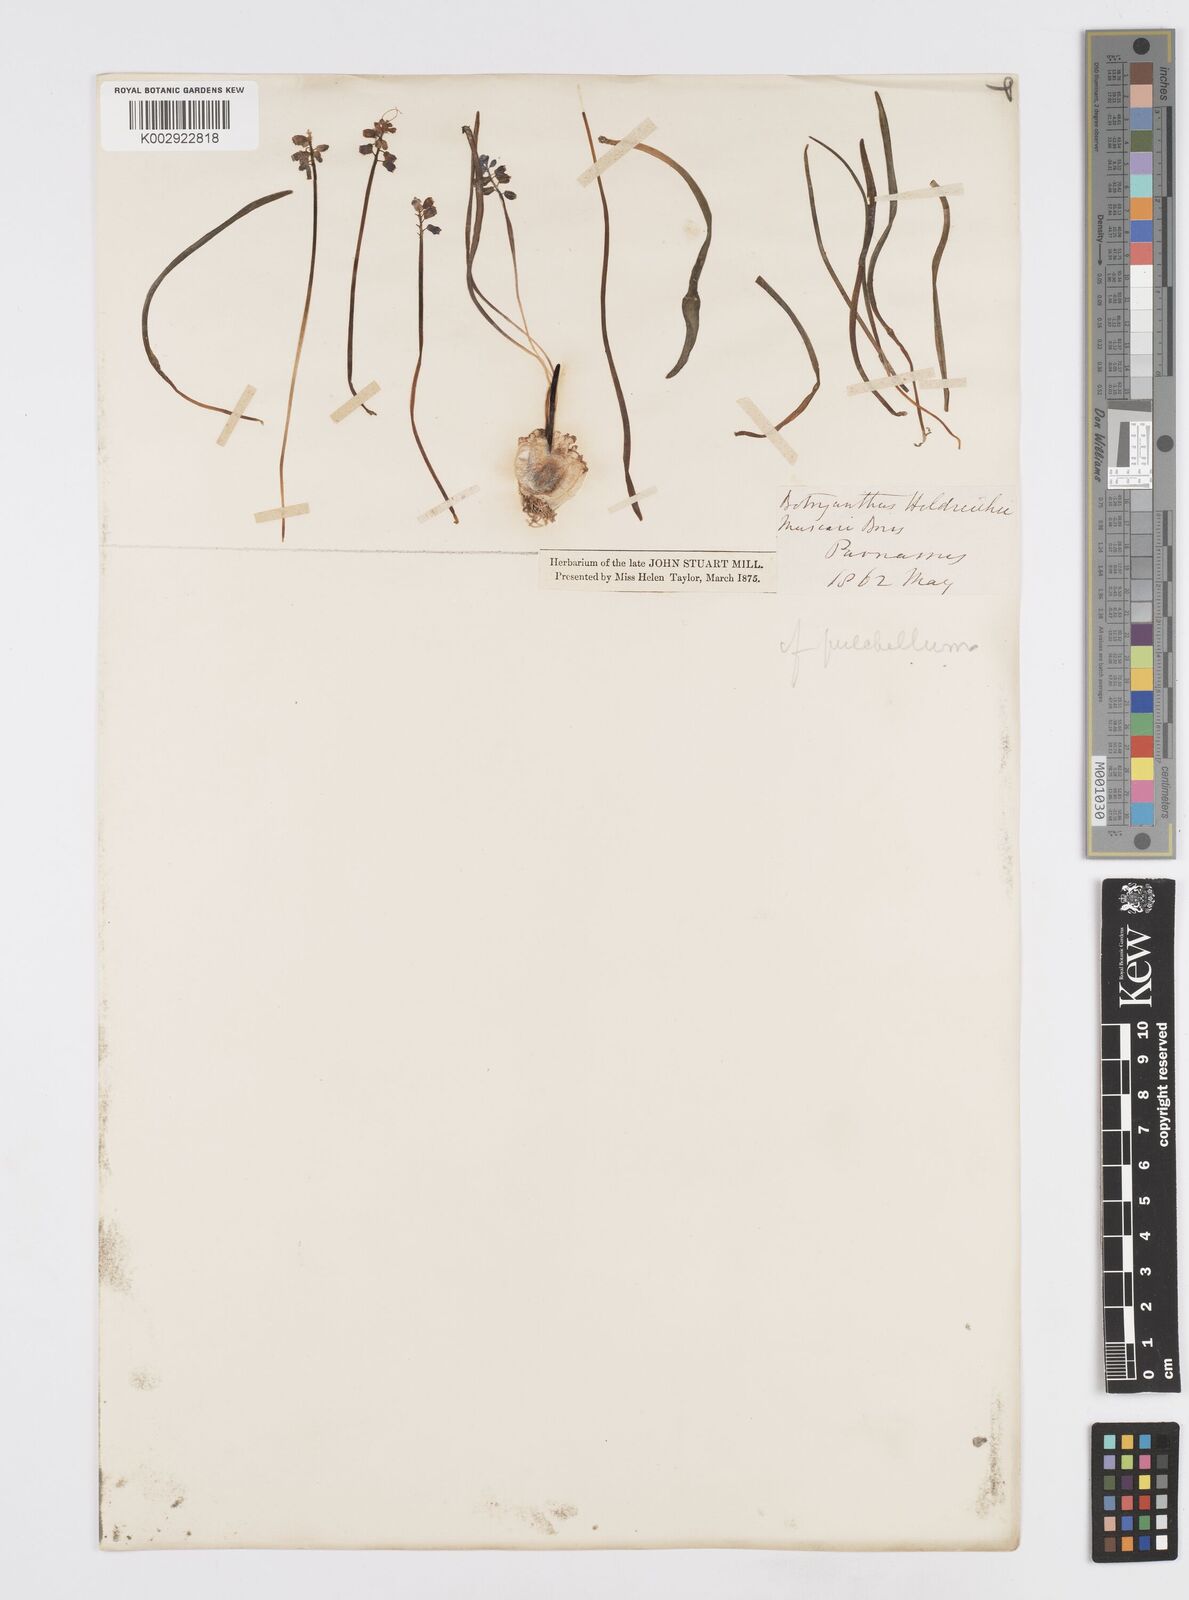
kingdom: Plantae
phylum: Tracheophyta
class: Liliopsida
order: Asparagales
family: Asparagaceae
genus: Muscari
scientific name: Muscari botryoides
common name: Compact grape-hyacinth
